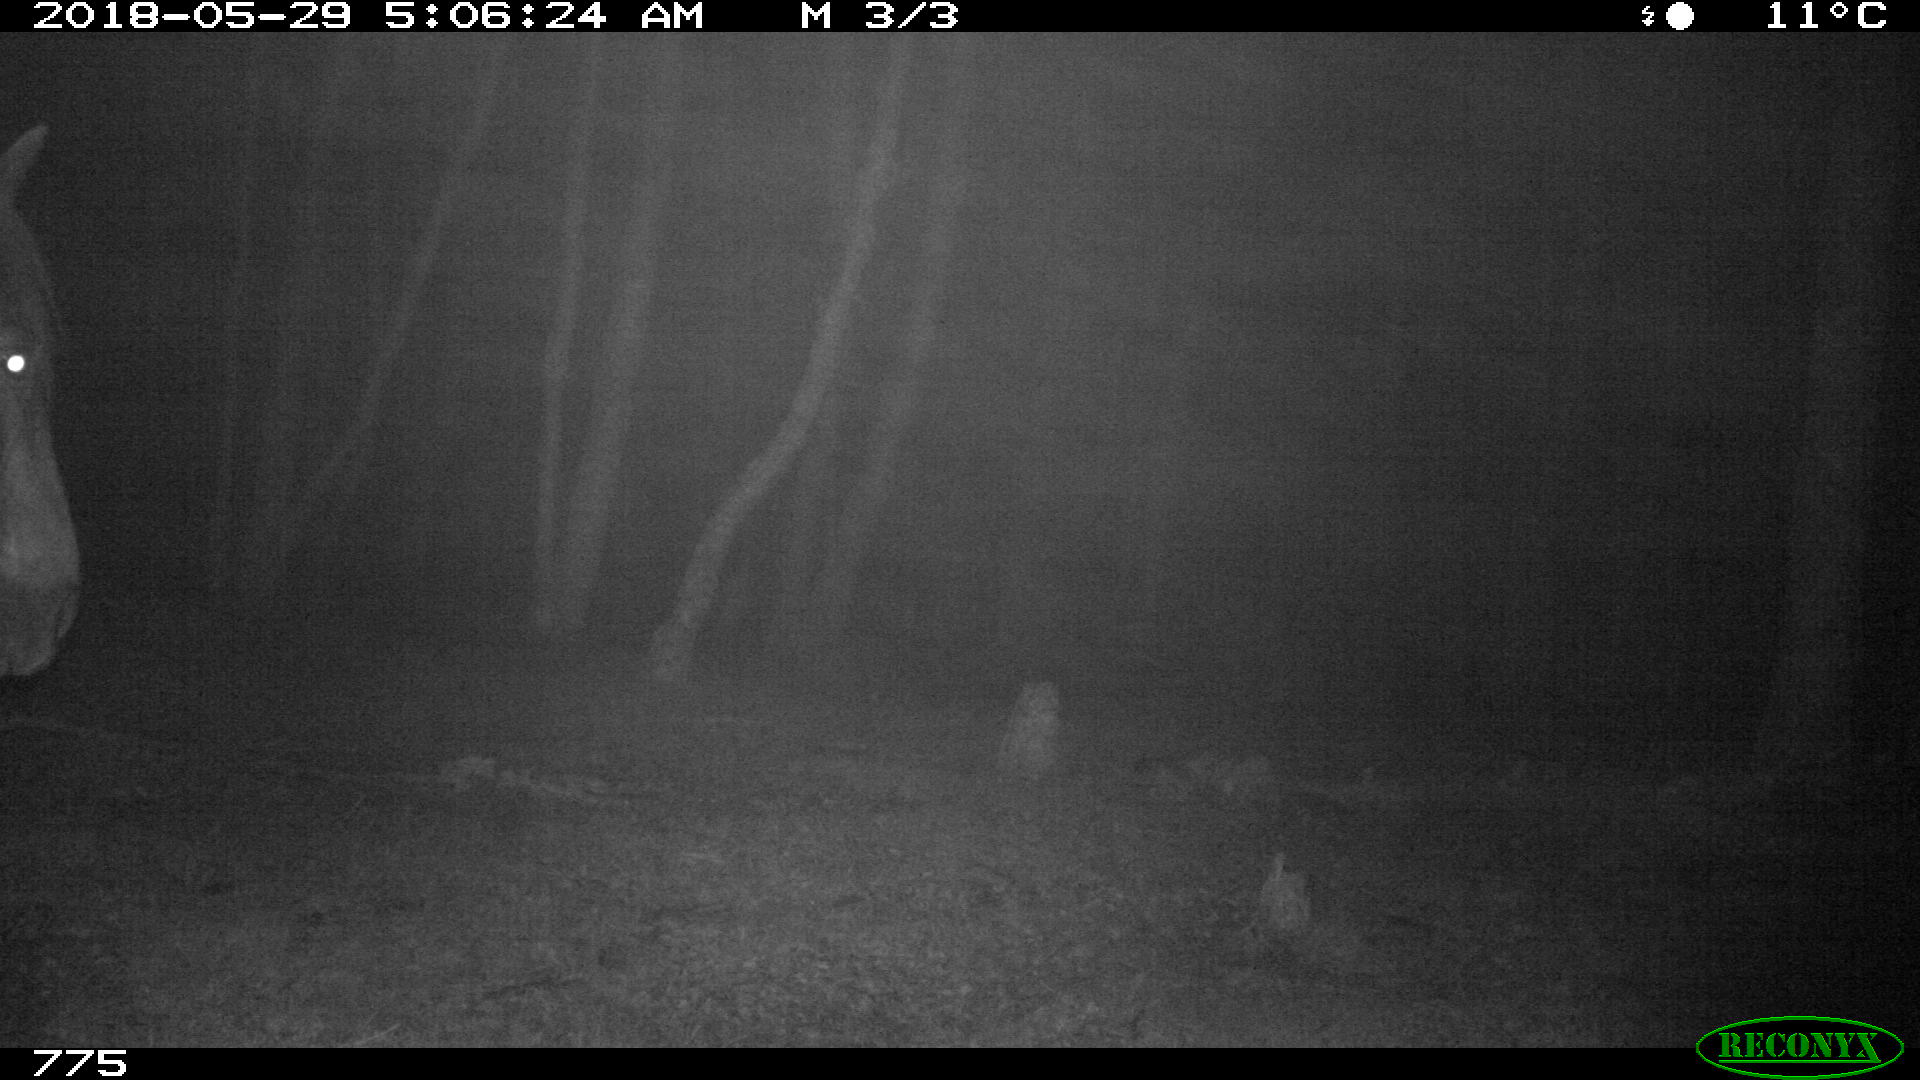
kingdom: Animalia
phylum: Chordata
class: Mammalia
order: Perissodactyla
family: Equidae
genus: Equus
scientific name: Equus caballus
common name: Horse
